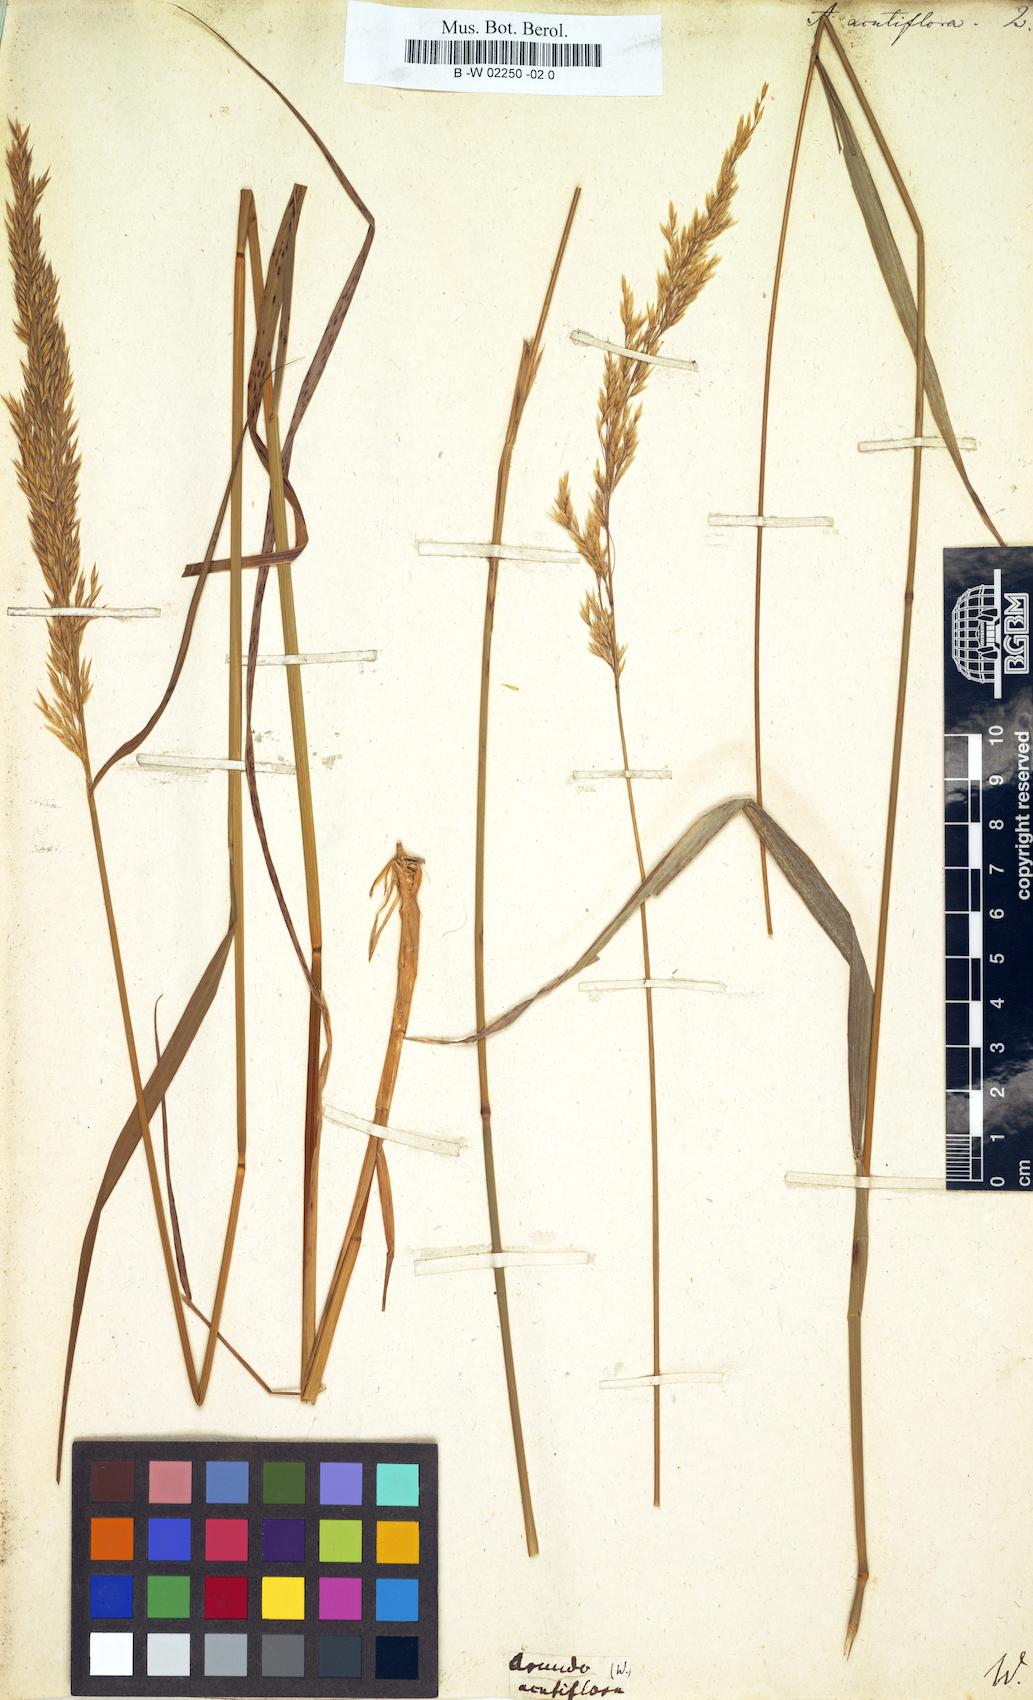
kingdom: Plantae
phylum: Tracheophyta
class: Liliopsida
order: Poales
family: Poaceae
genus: Arundo
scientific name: Arundo acutiflora
